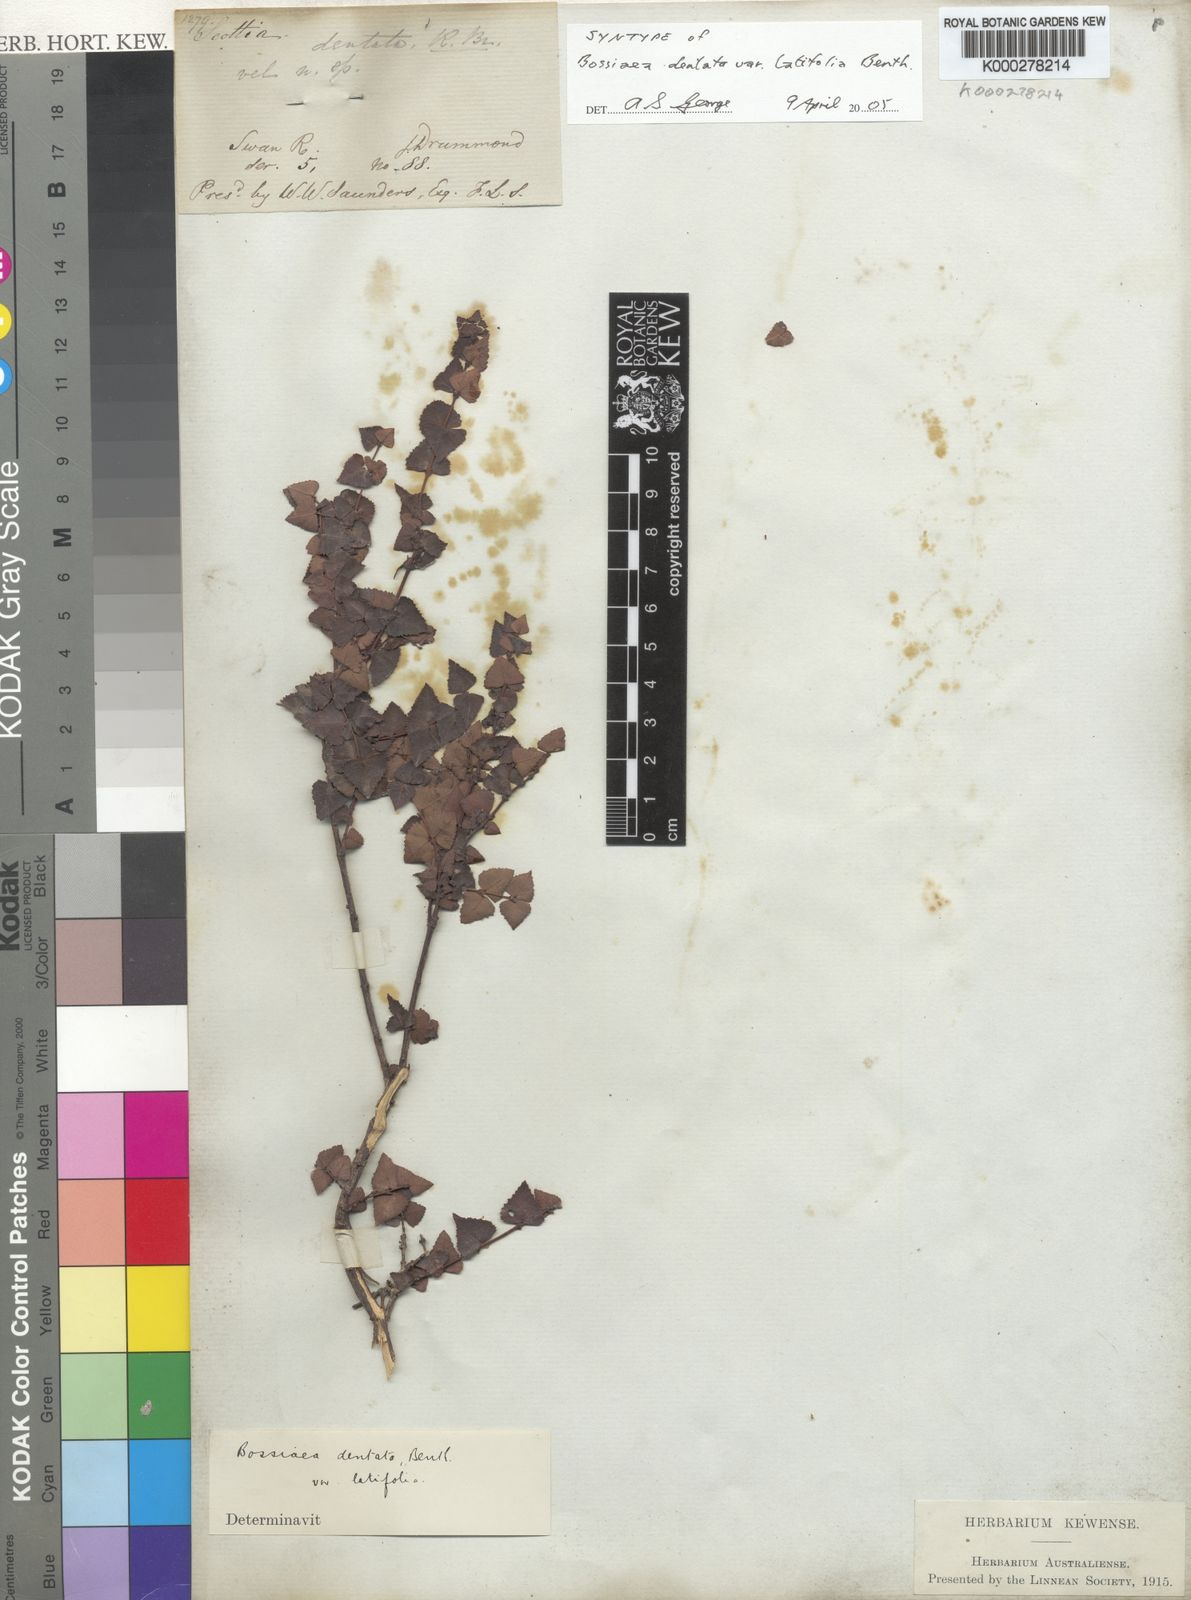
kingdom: Plantae
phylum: Tracheophyta
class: Magnoliopsida
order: Fabales
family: Fabaceae
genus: Bossiaea
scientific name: Bossiaea dentata
